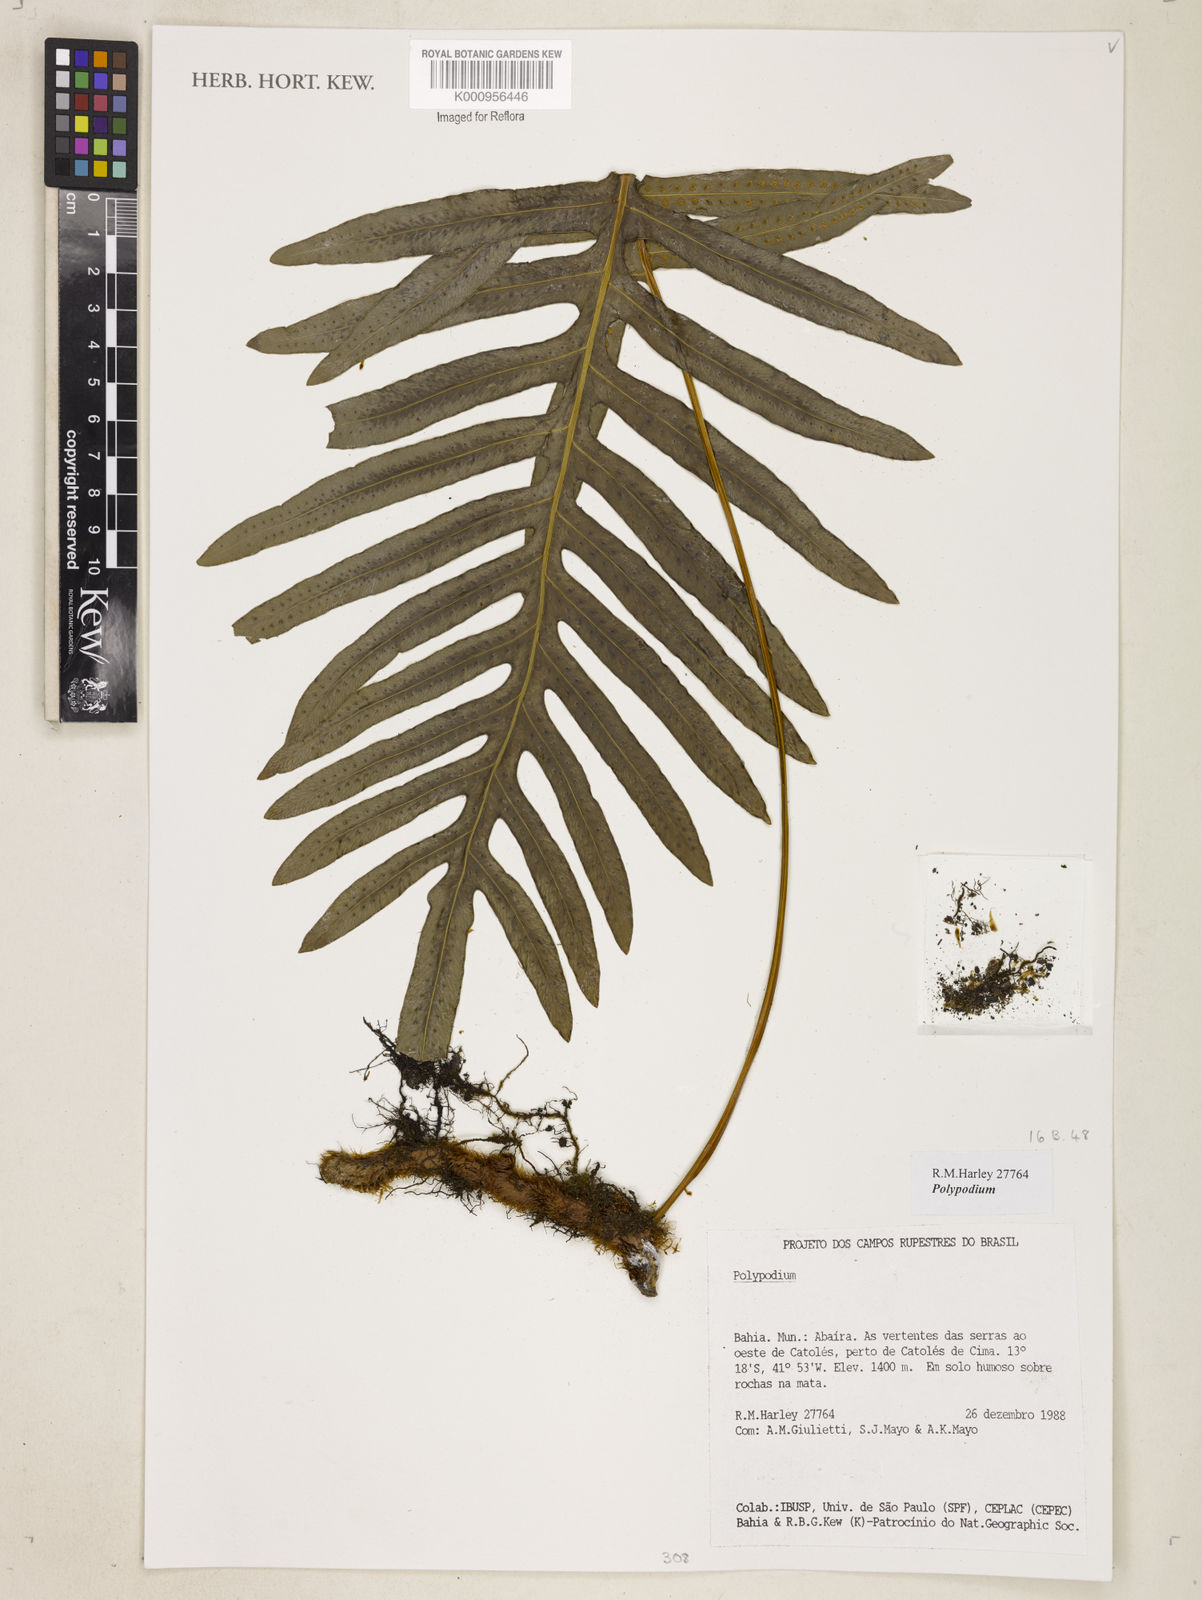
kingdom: Plantae
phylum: Tracheophyta
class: Polypodiopsida
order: Polypodiales
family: Polypodiaceae
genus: Polypodium
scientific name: Polypodium
